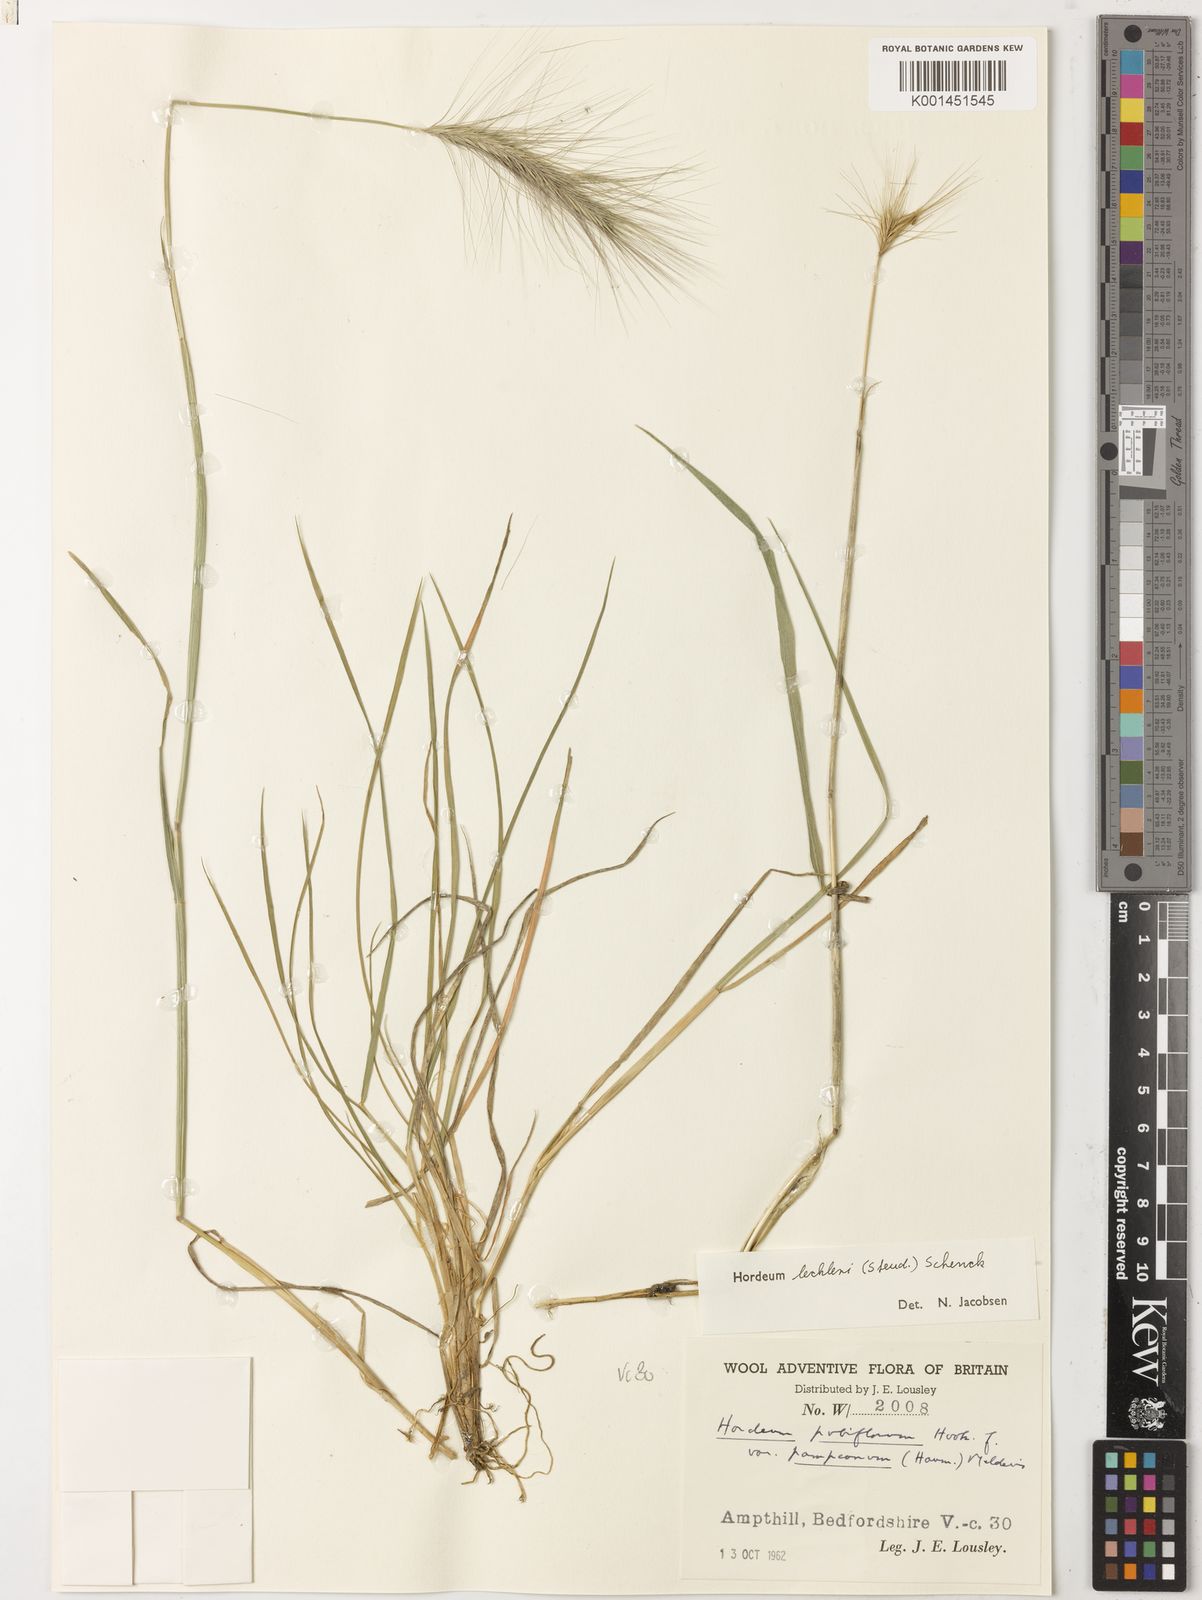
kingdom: Plantae
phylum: Tracheophyta
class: Liliopsida
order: Poales
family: Poaceae
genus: Hordeum
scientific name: Hordeum lechleri
